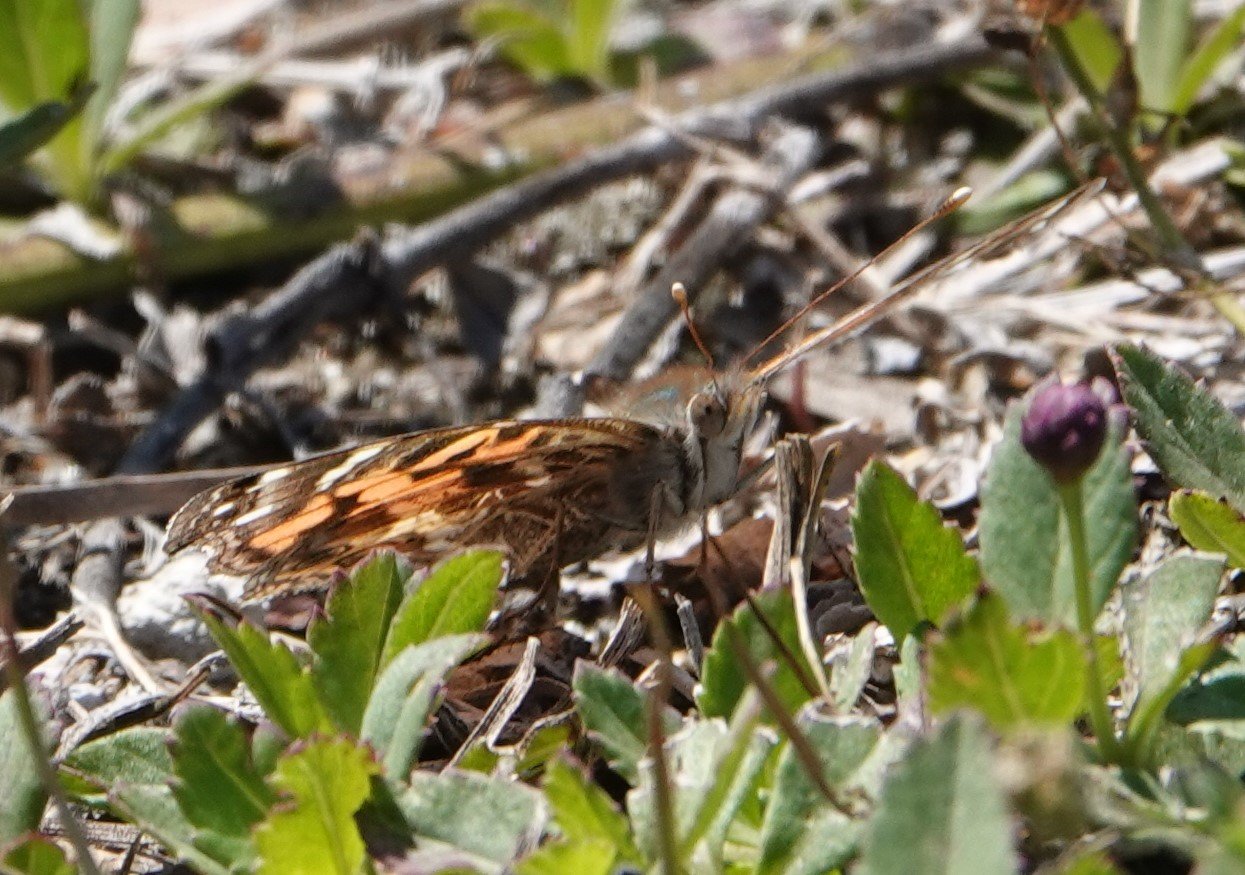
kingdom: Animalia
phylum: Arthropoda
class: Insecta
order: Lepidoptera
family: Nymphalidae
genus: Vanessa
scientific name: Vanessa virginiensis
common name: American Lady
